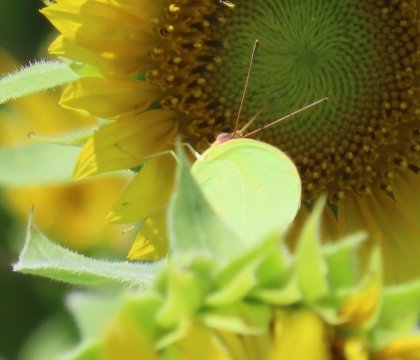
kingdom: Animalia
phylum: Arthropoda
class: Insecta
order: Lepidoptera
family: Pieridae
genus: Phoebis
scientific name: Phoebis sennae
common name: Cloudless Sulphur
